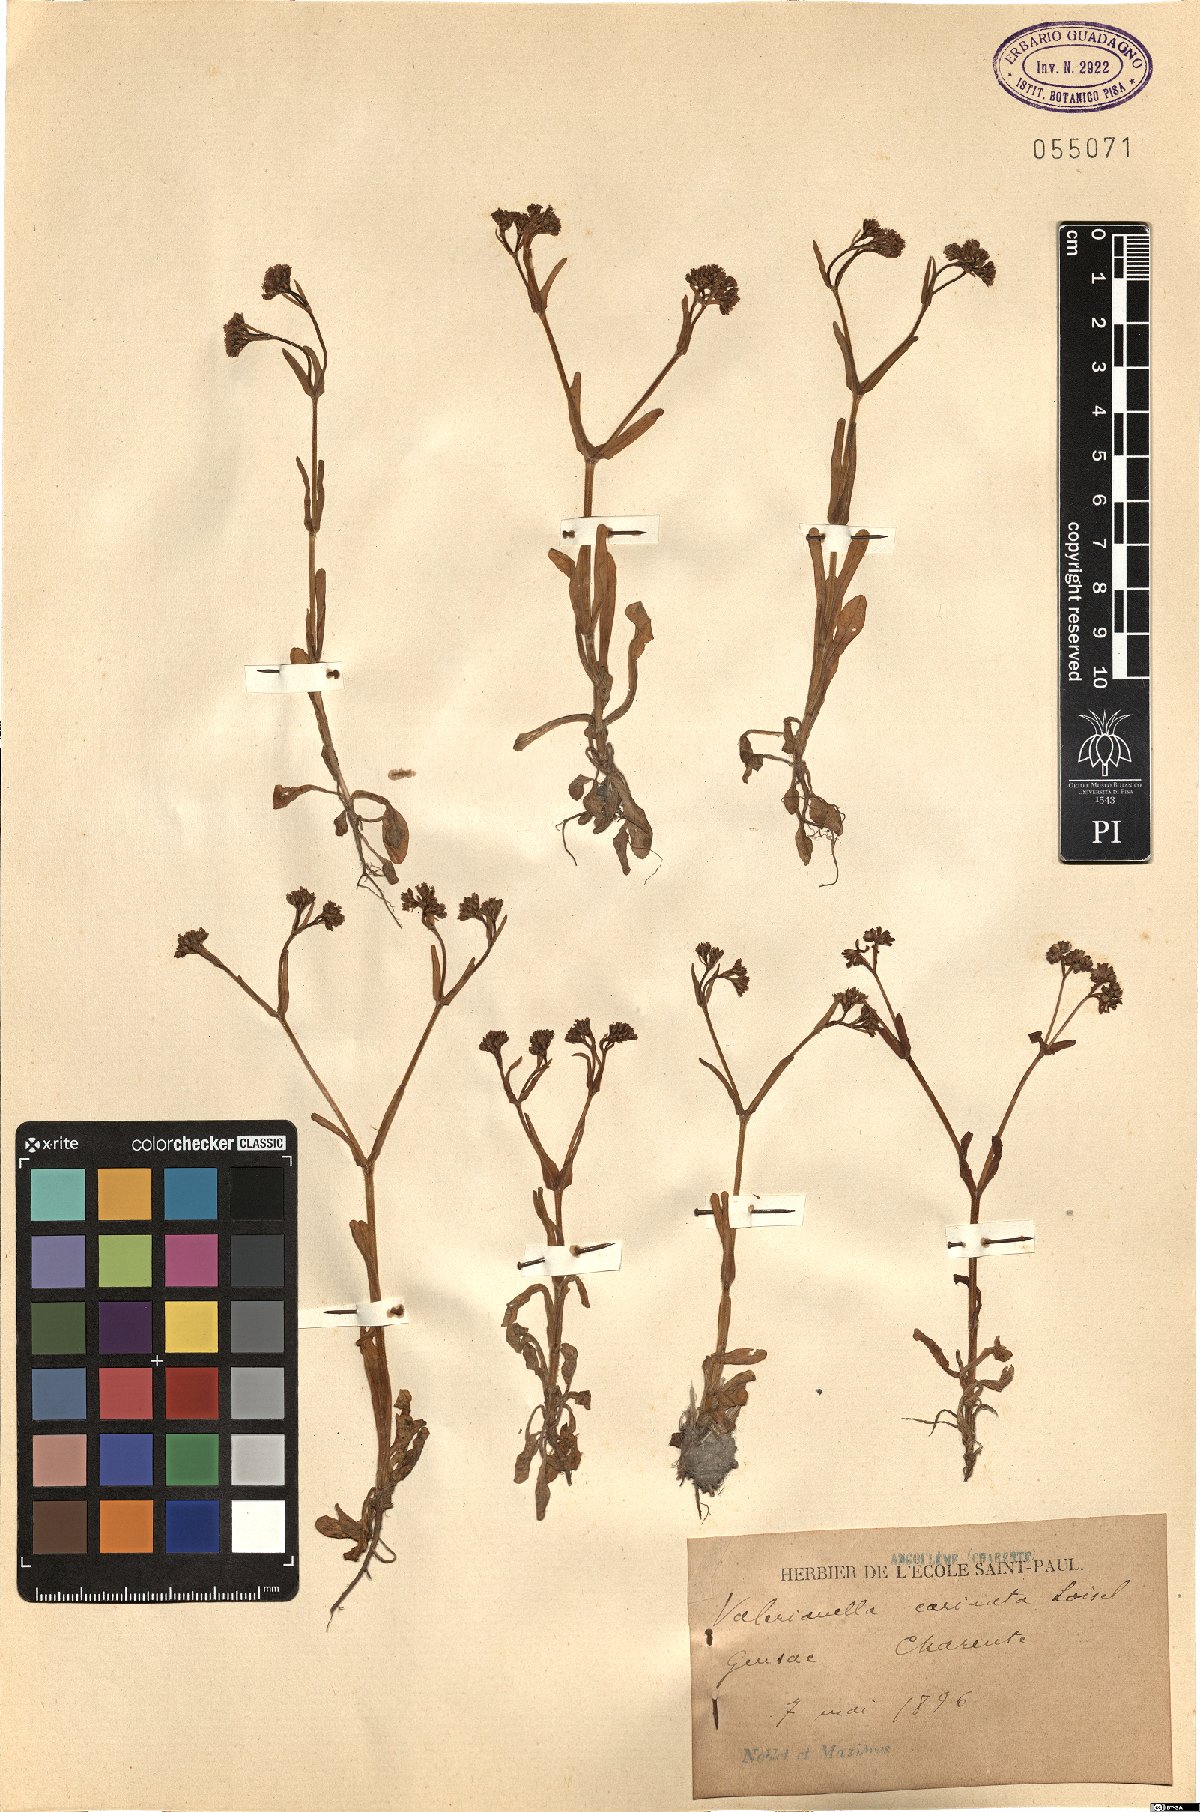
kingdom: Plantae
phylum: Tracheophyta
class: Magnoliopsida
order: Dipsacales
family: Caprifoliaceae
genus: Valerianella
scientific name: Valerianella carinata
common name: Keeled-fruited cornsalad
